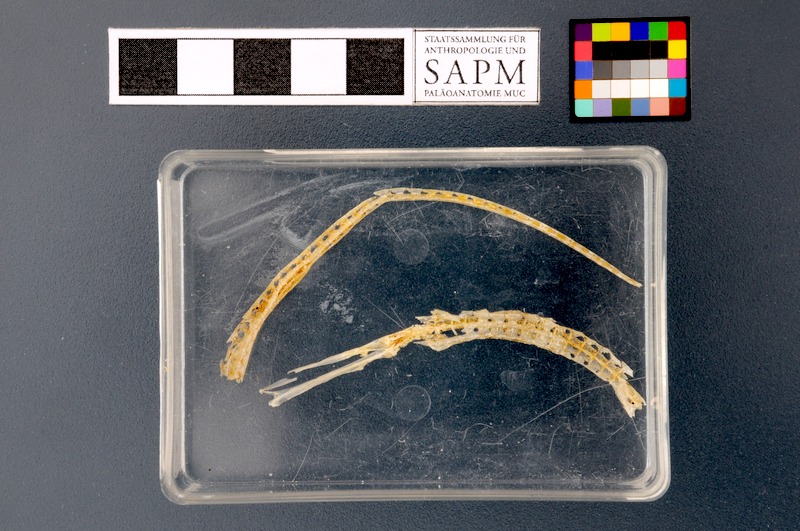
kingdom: Animalia
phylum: Chordata
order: Syngnathiformes
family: Syngnathidae
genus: Syngnathus
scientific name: Syngnathus typhle
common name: Deep-snouted pipefish
